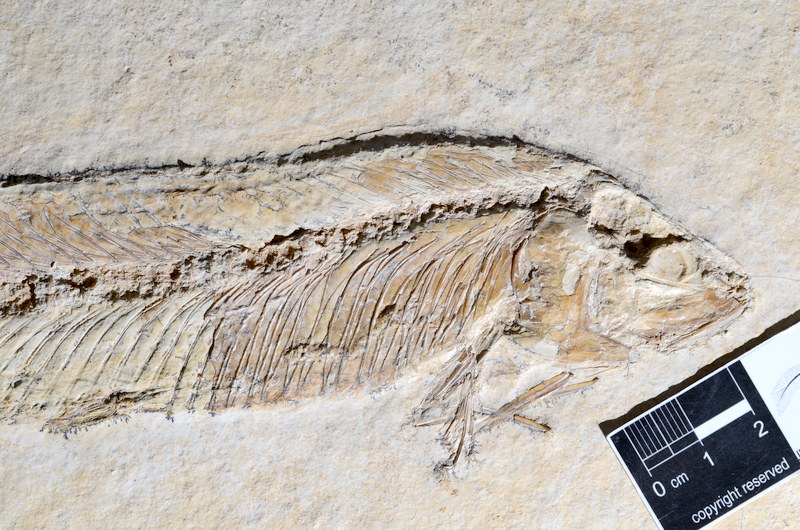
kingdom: Animalia
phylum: Chordata
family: Allothrissopidae
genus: Allothrissops
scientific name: Allothrissops
